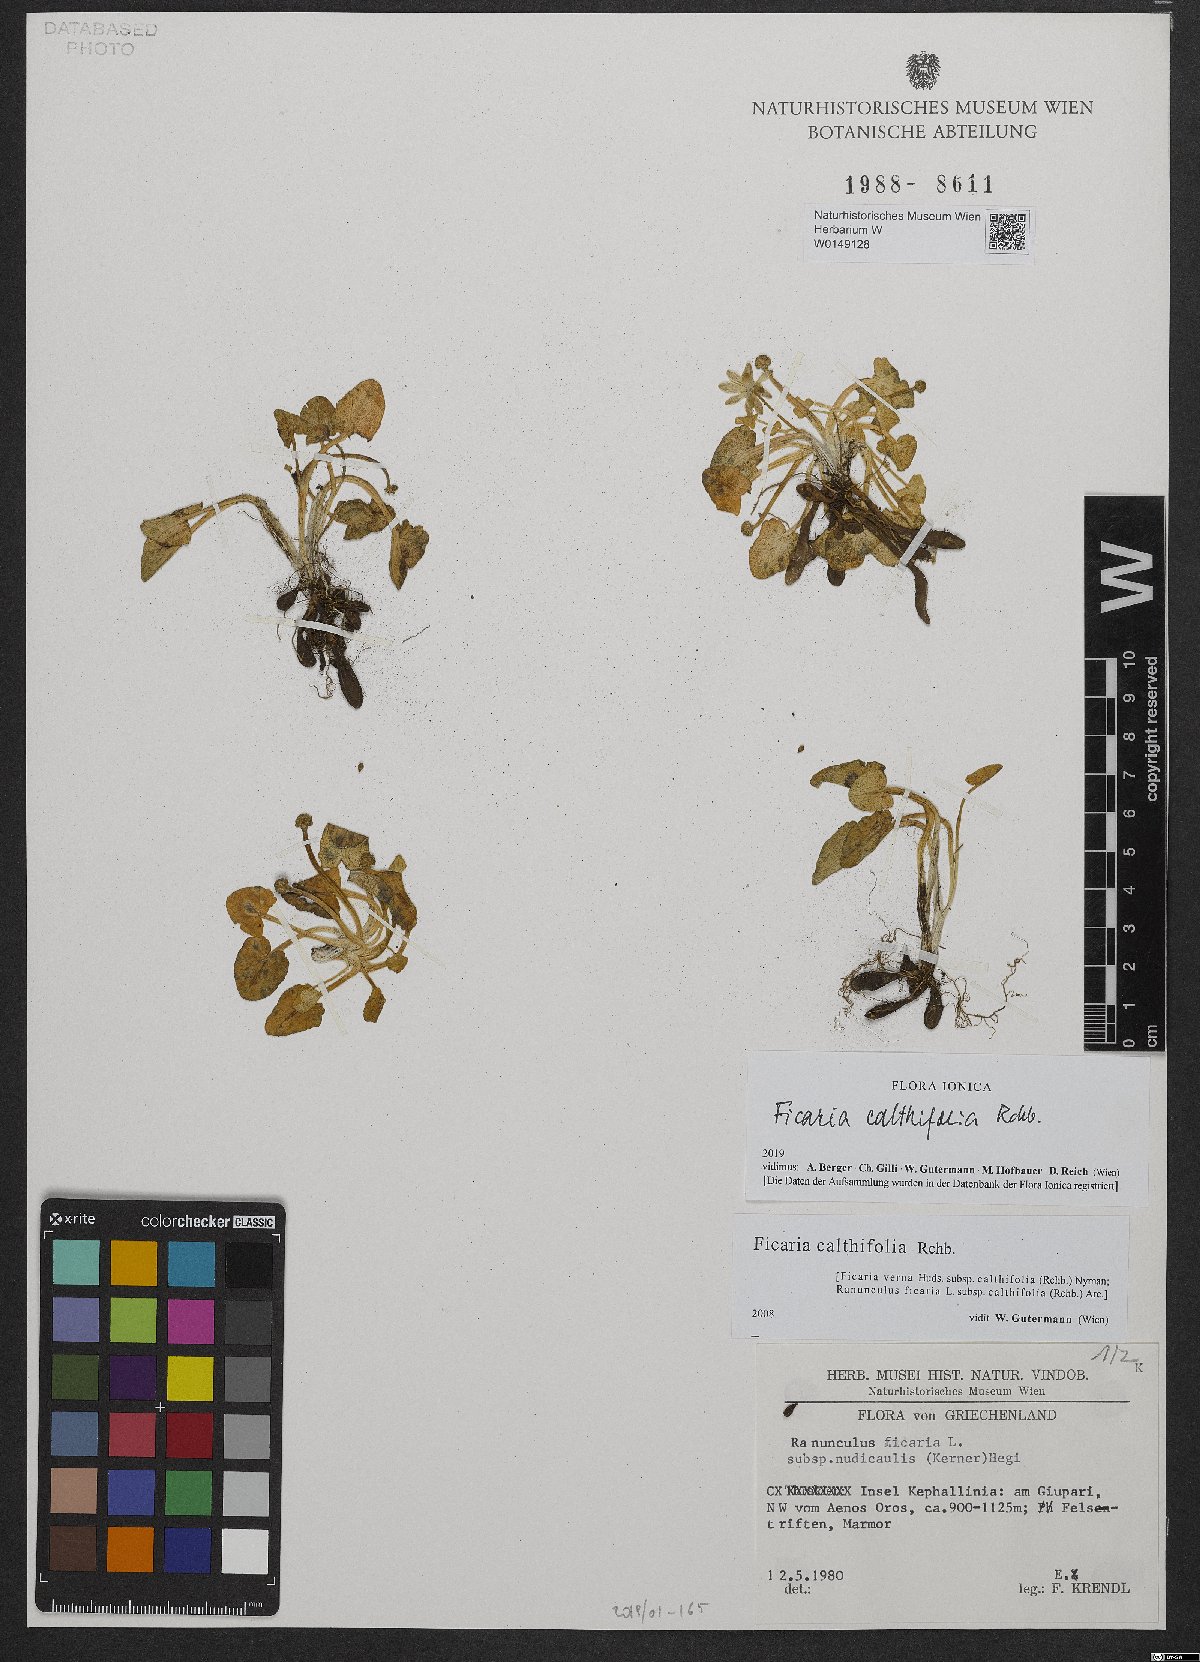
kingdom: Plantae
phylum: Tracheophyta
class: Magnoliopsida
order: Ranunculales
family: Ranunculaceae
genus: Ficaria
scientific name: Ficaria calthifolia
